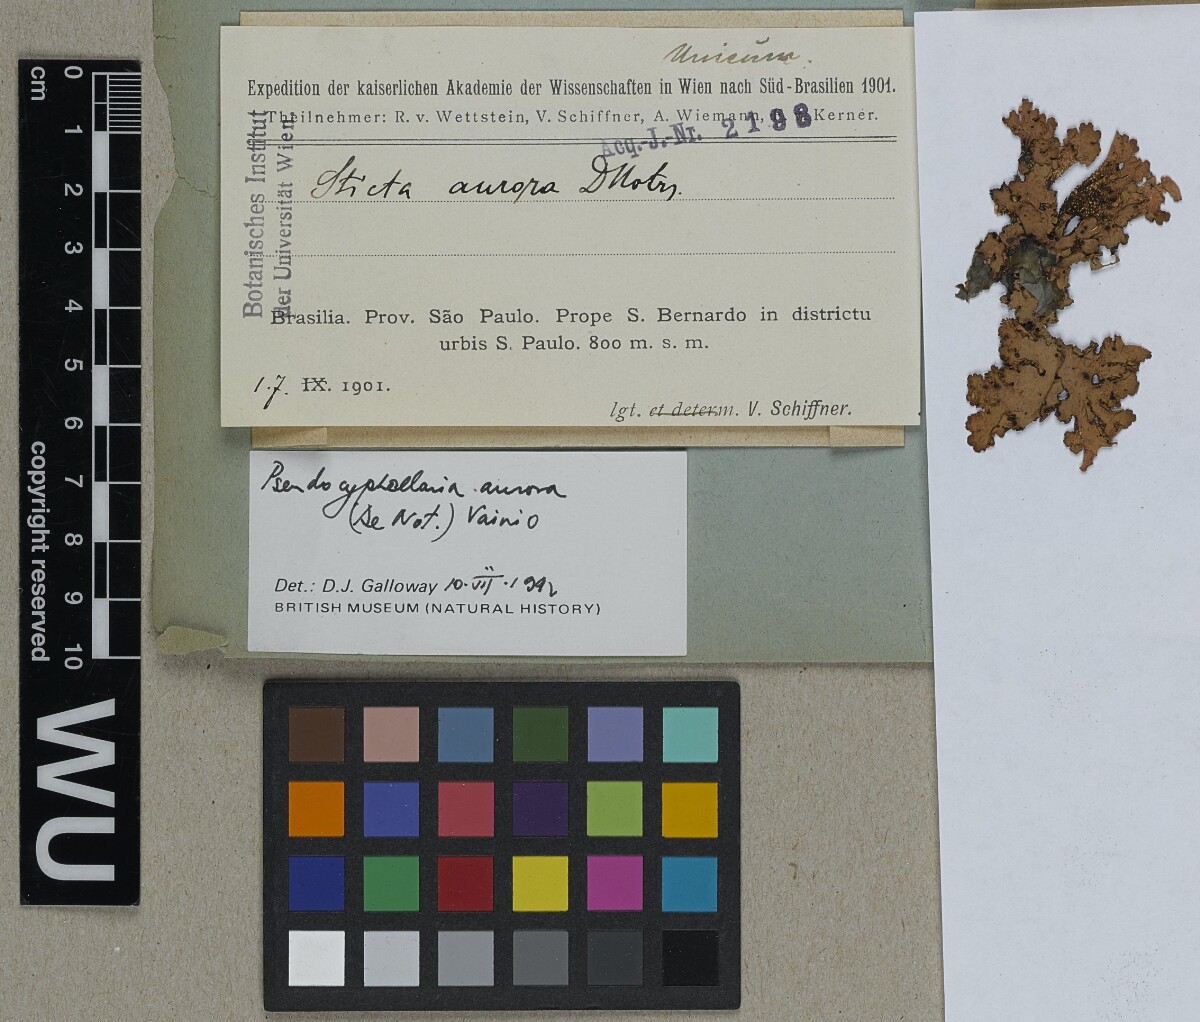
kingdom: Fungi
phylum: Ascomycota
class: Lecanoromycetes
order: Peltigerales
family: Lobariaceae
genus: Pseudocyphellaria
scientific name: Pseudocyphellaria aurata
